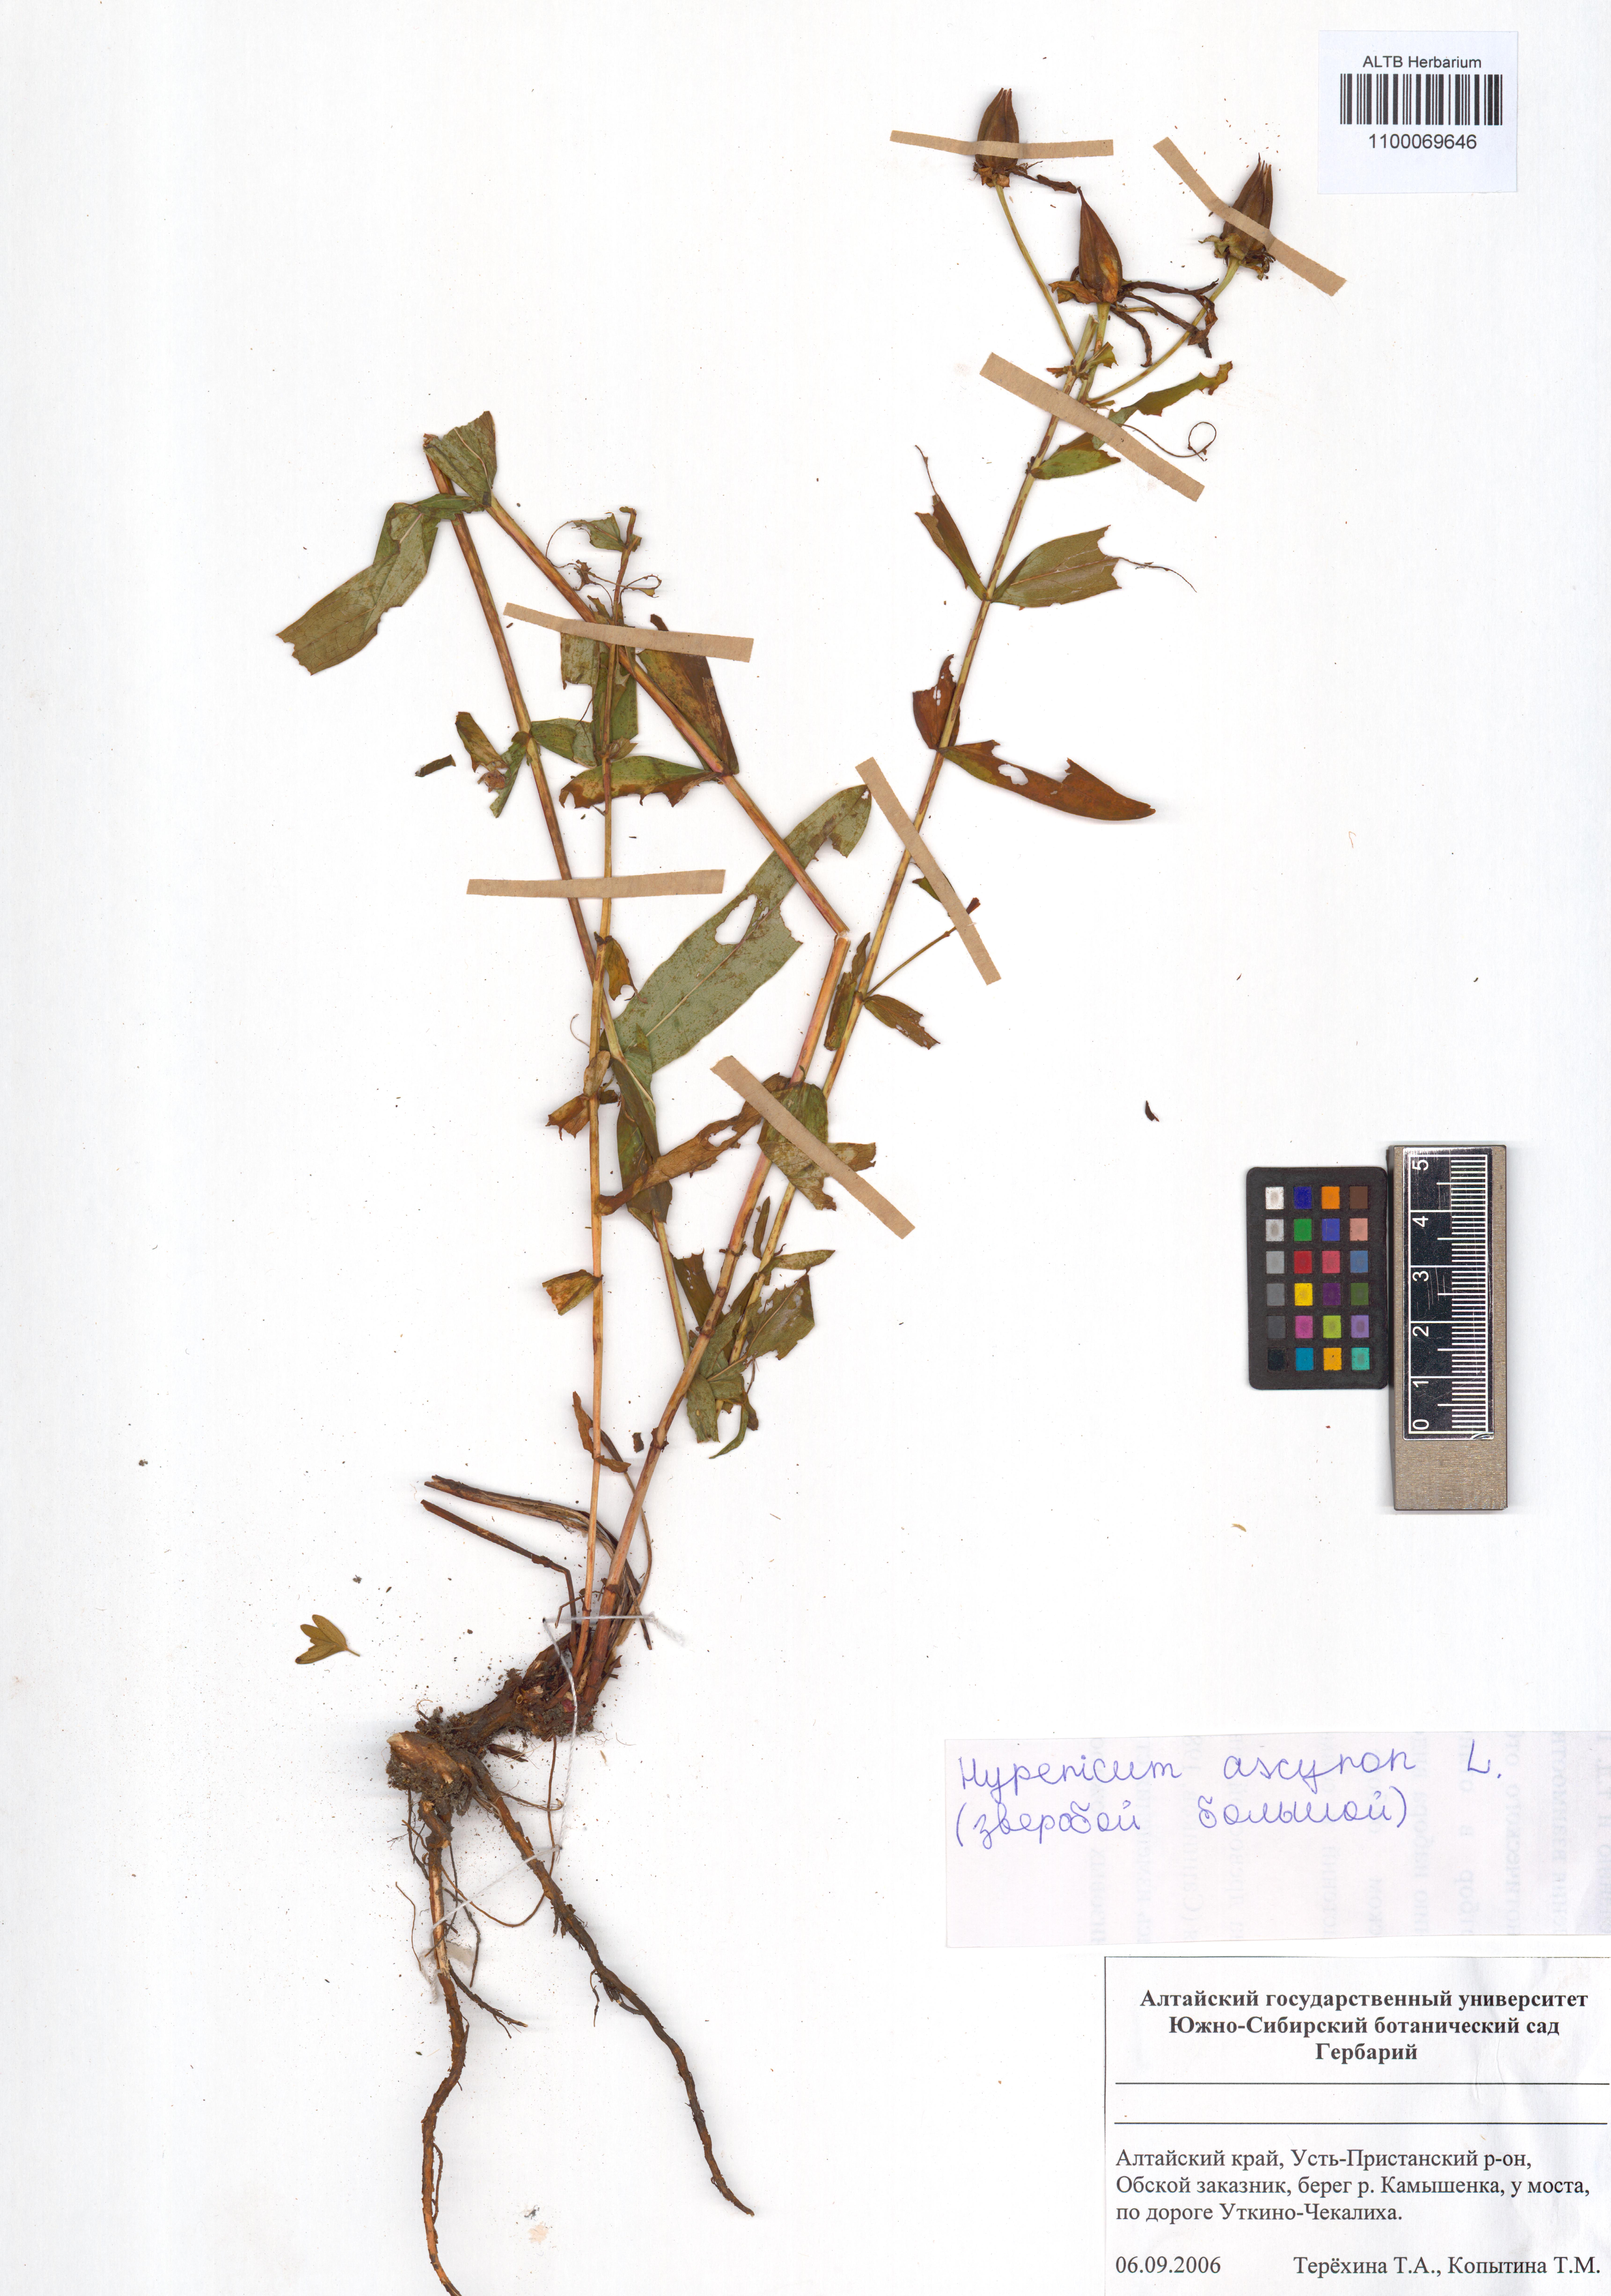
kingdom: Plantae
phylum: Tracheophyta
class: Magnoliopsida
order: Malpighiales
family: Hypericaceae
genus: Hypericum
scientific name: Hypericum ascyron
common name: Giant st. john's-wort
